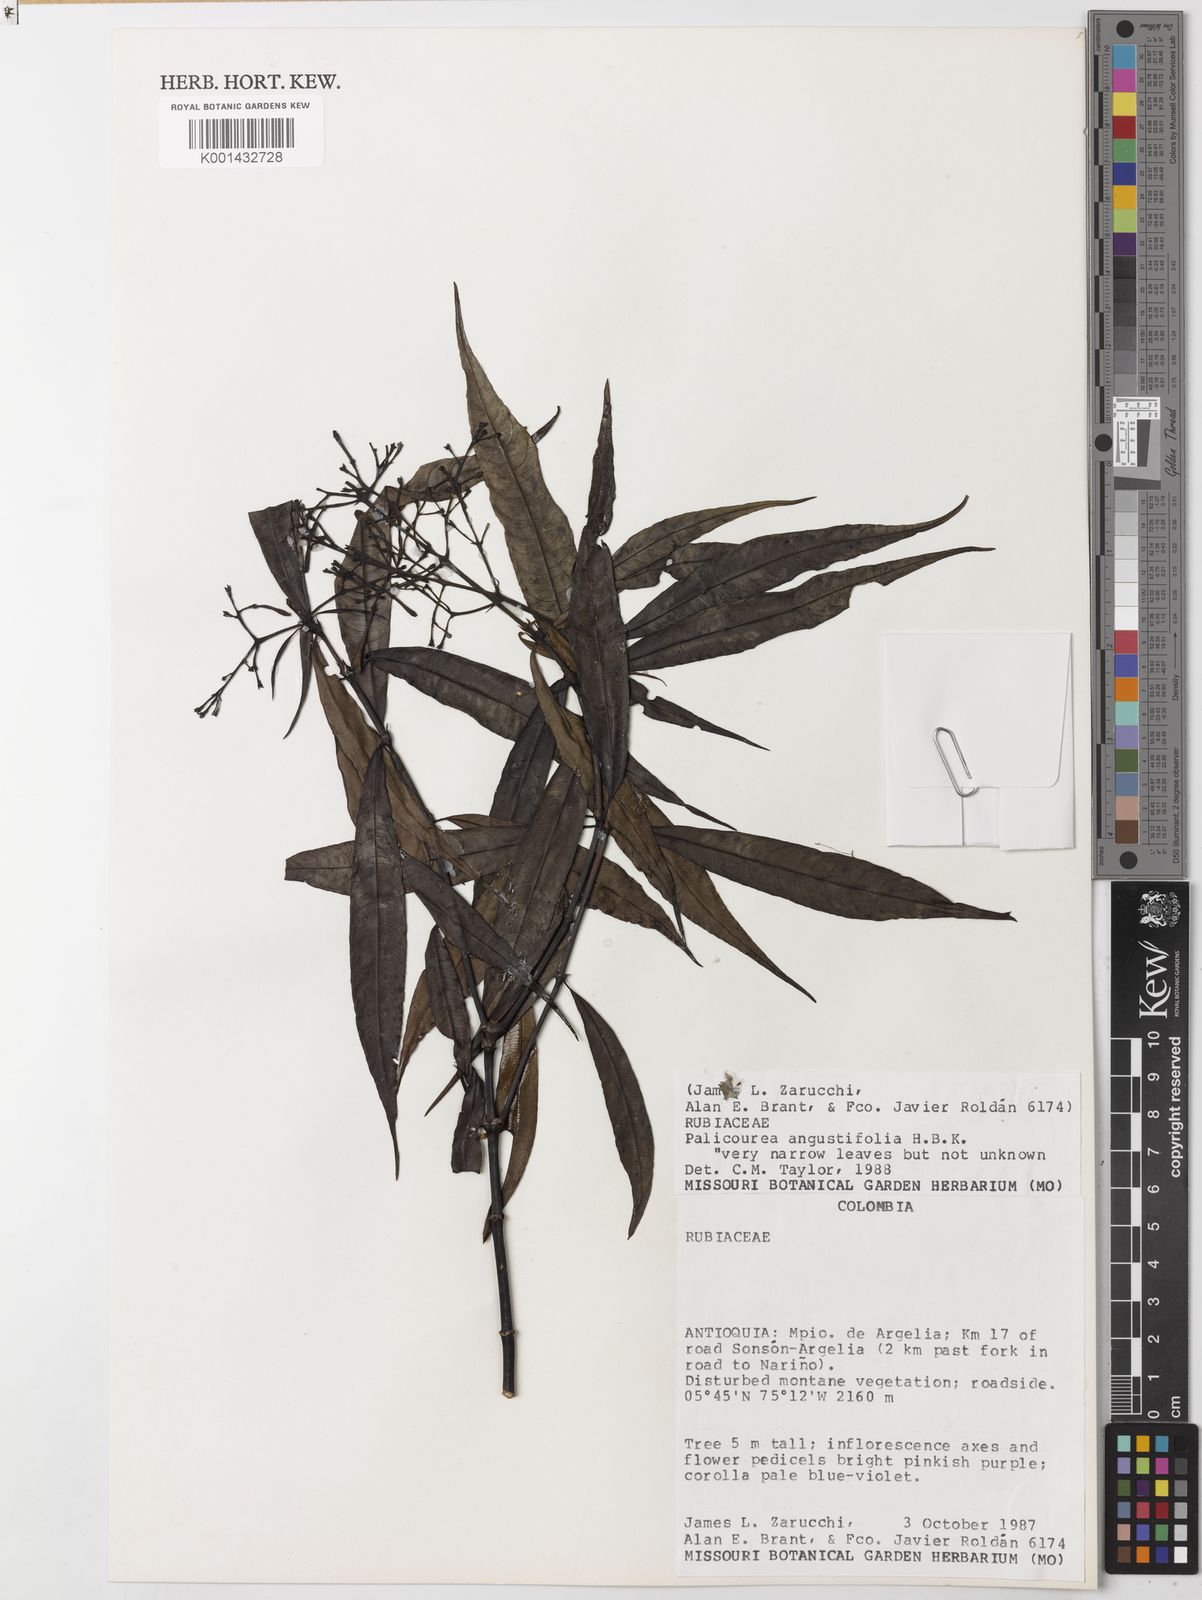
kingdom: Plantae
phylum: Tracheophyta
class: Magnoliopsida
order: Gentianales
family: Rubiaceae
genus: Palicourea
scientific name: Palicourea angustifolia
